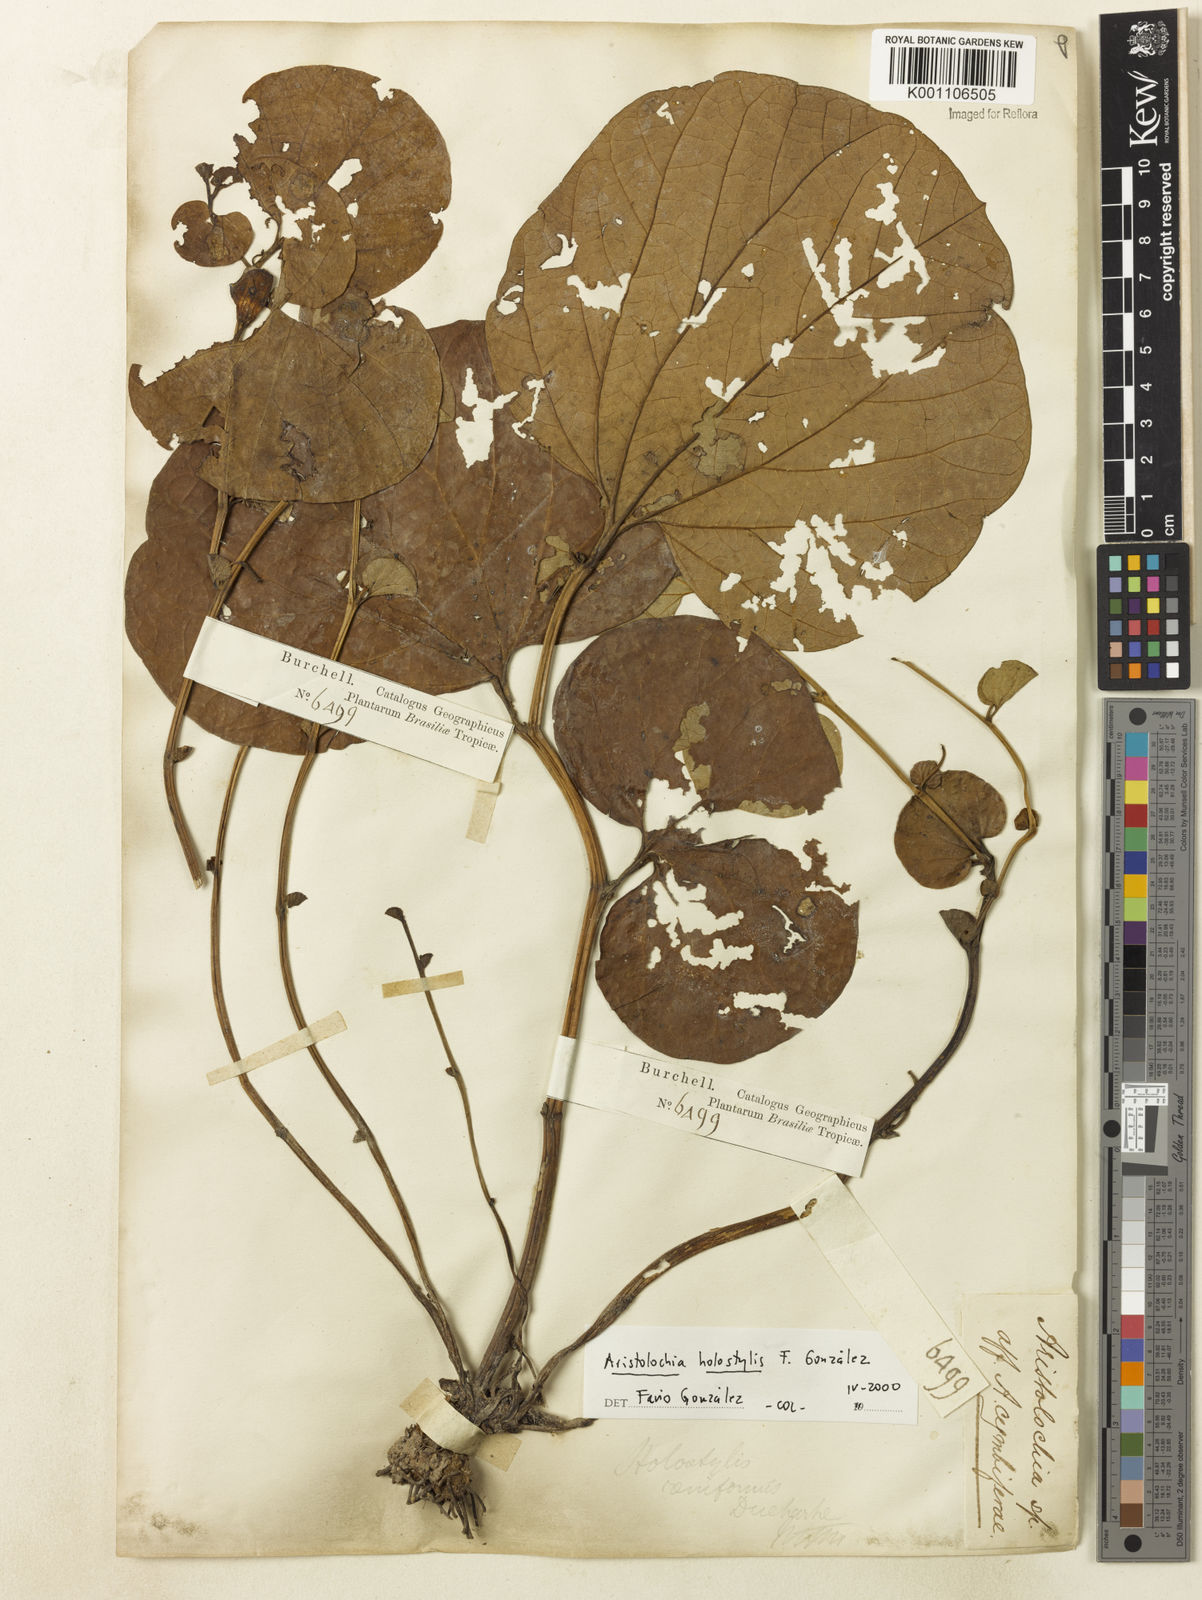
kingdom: Plantae
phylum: Tracheophyta
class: Magnoliopsida
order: Piperales
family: Aristolochiaceae
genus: Aristolochia
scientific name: Aristolochia
